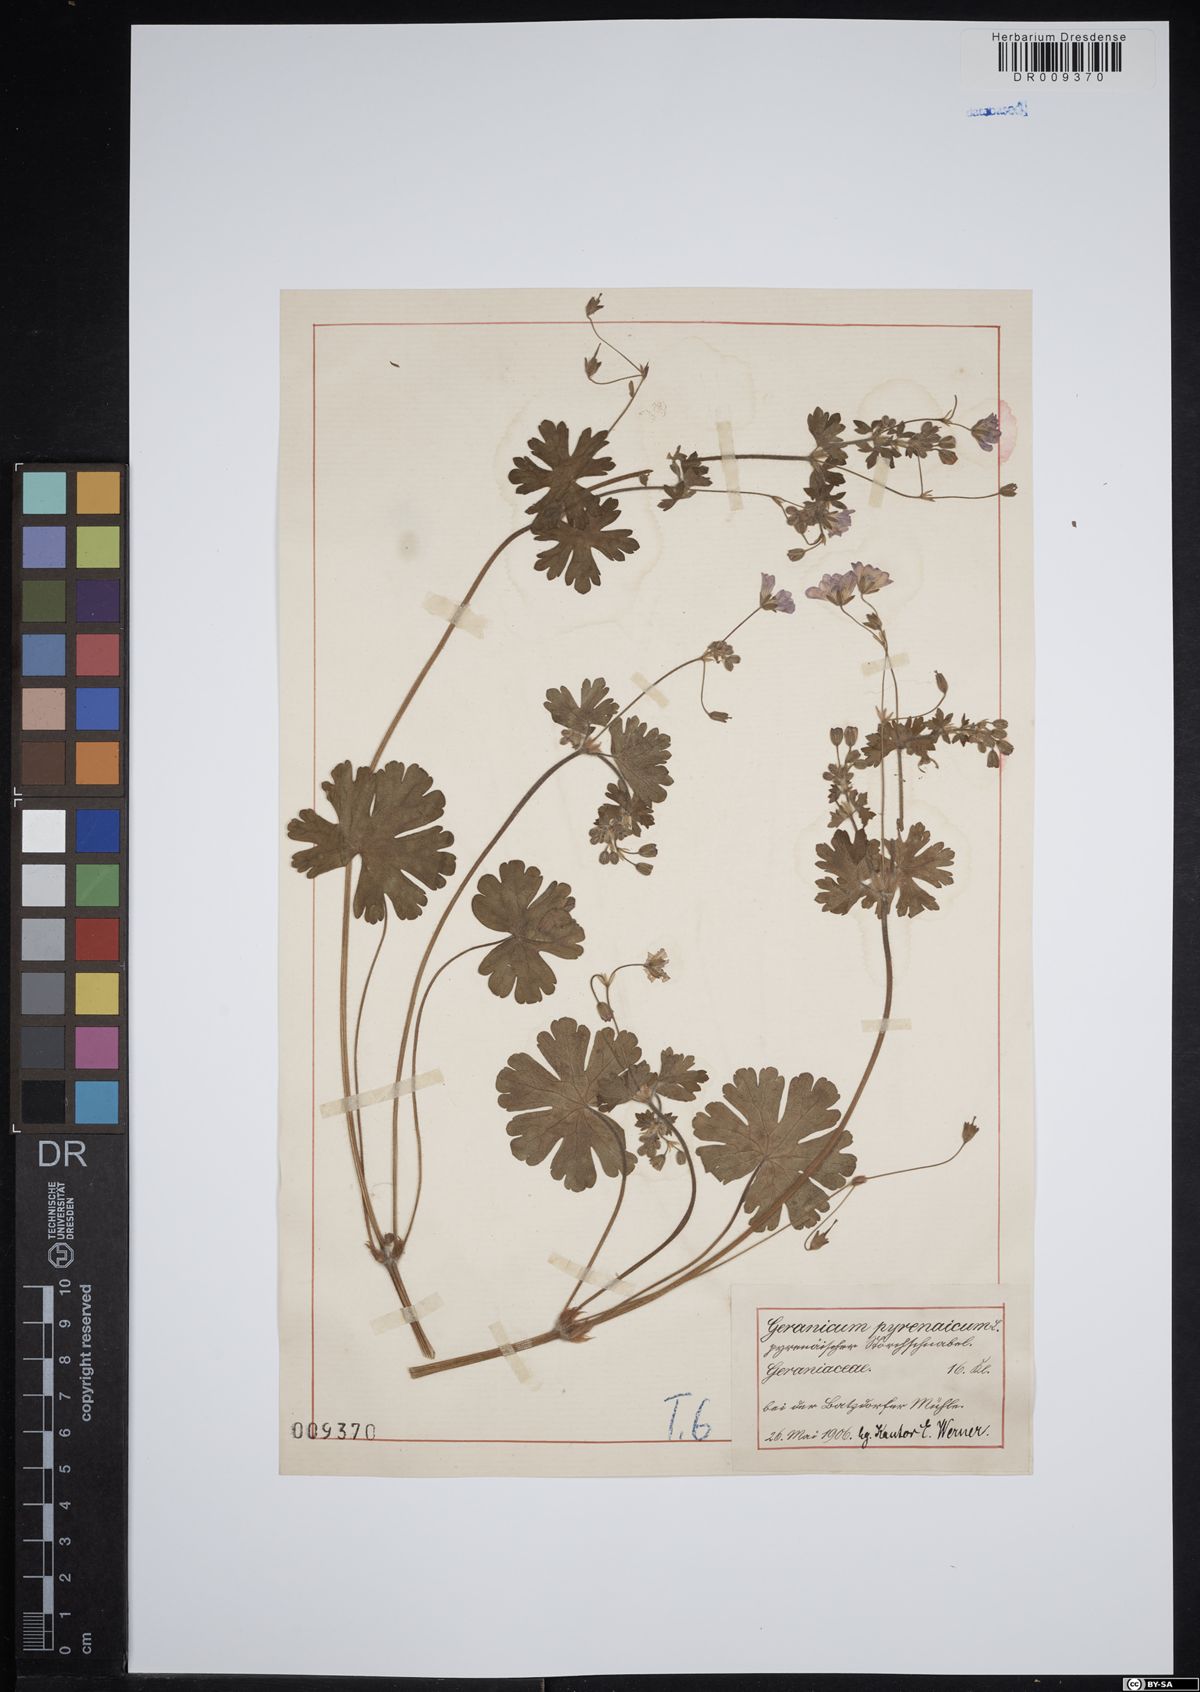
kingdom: Plantae
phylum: Tracheophyta
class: Magnoliopsida
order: Geraniales
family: Geraniaceae
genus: Geranium
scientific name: Geranium pyrenaicum
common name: Hedgerow crane's-bill
